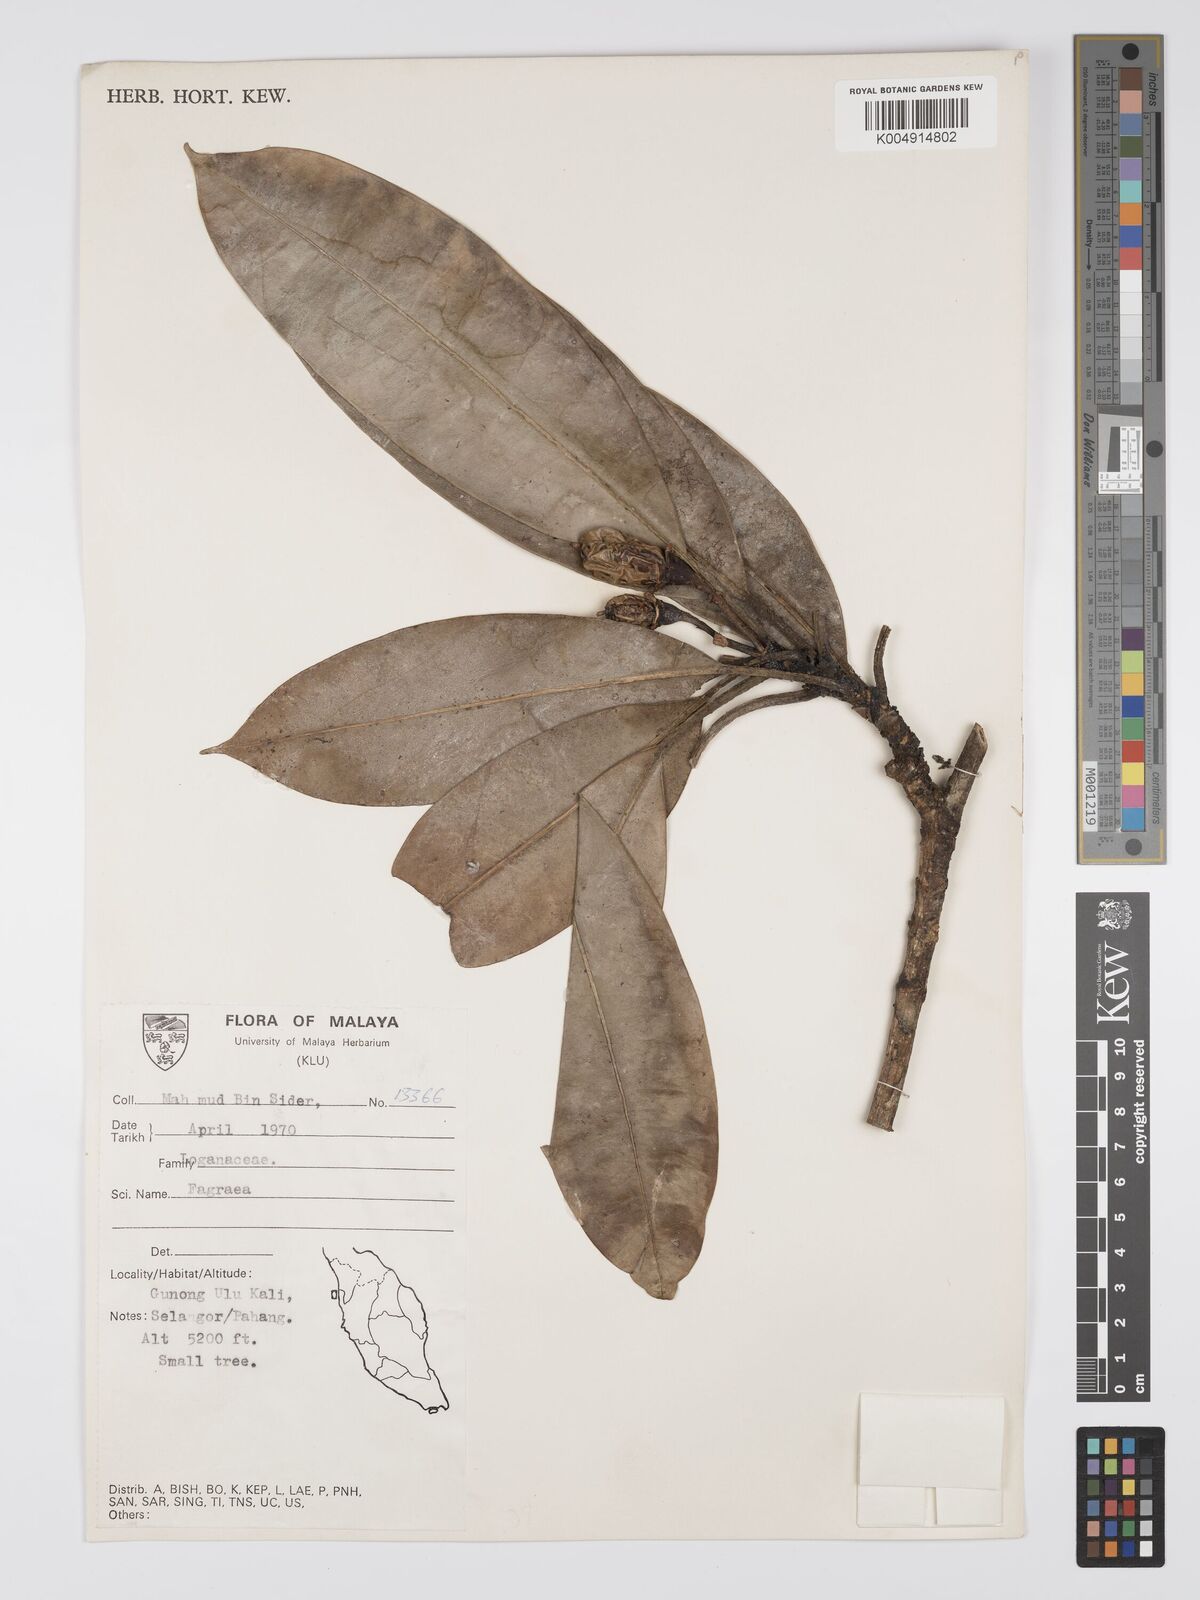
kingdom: Plantae
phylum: Tracheophyta
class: Magnoliopsida
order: Gentianales
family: Gentianaceae
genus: Fagraea
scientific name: Fagraea oblonga
